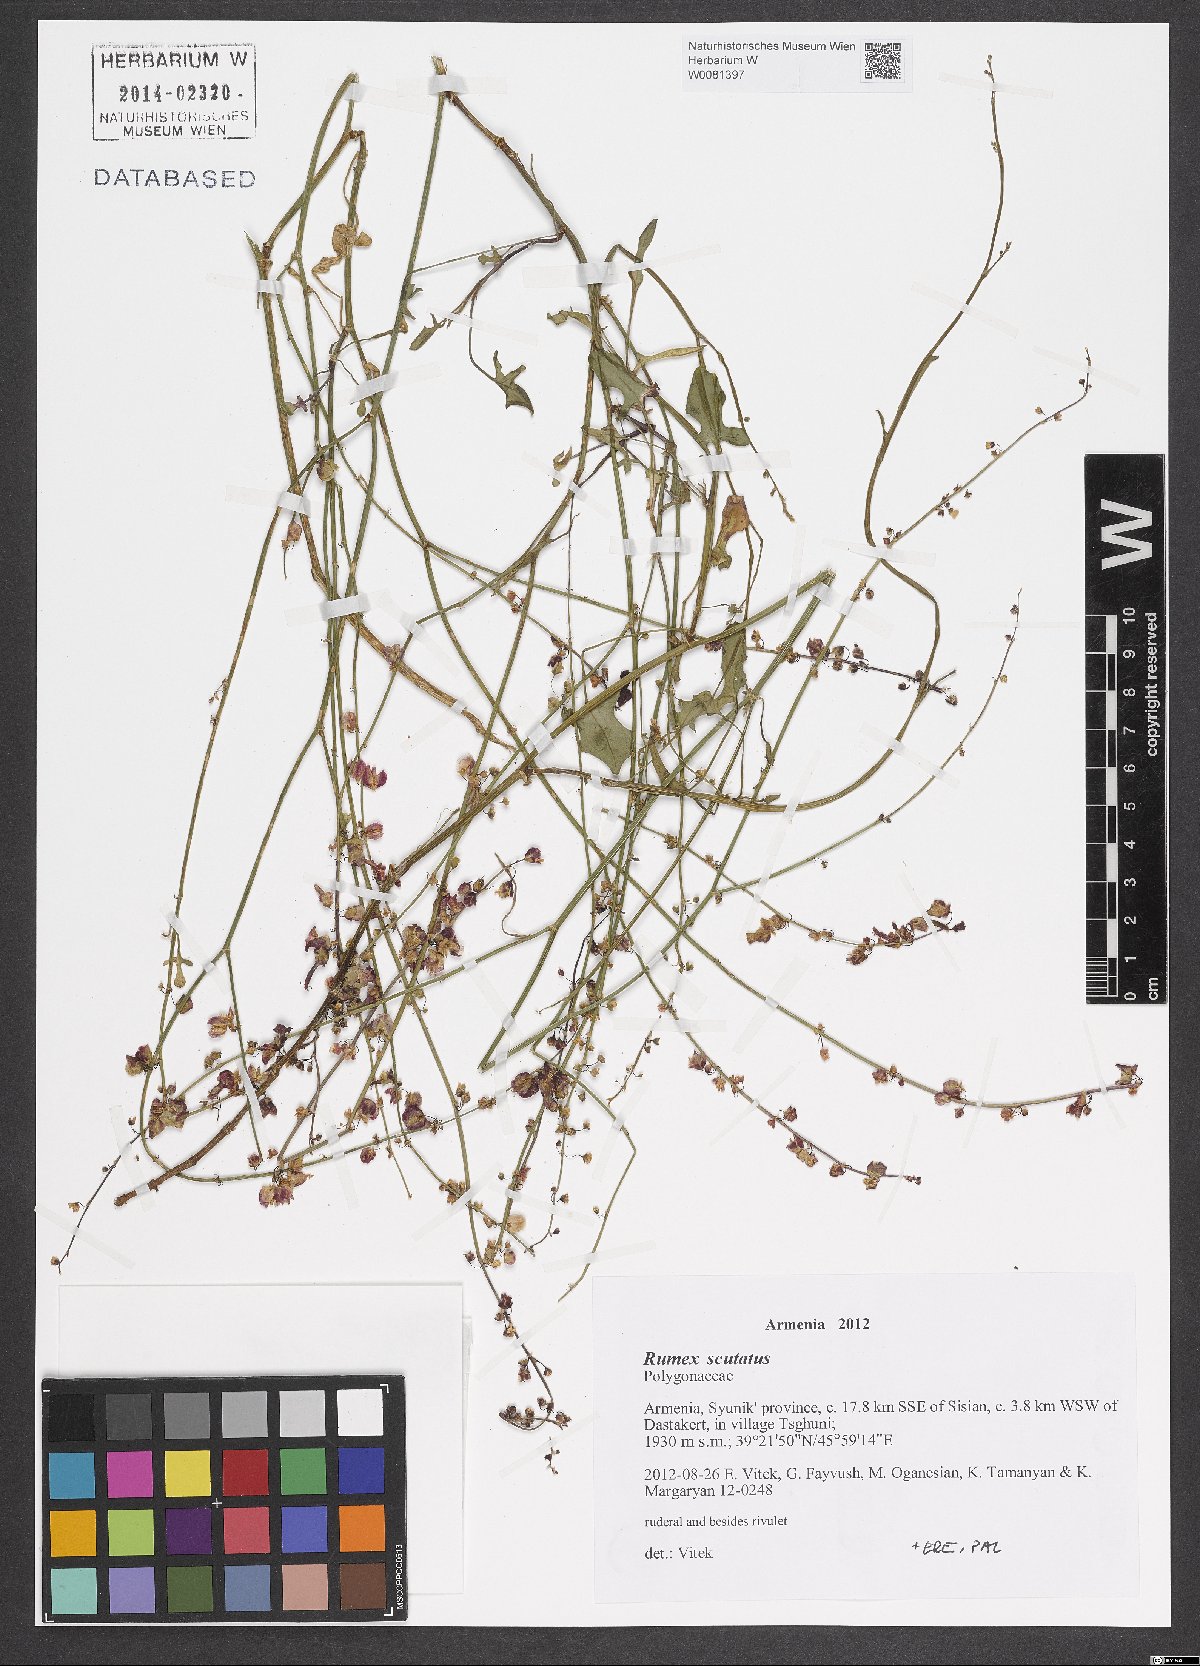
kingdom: Plantae
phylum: Tracheophyta
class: Magnoliopsida
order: Caryophyllales
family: Polygonaceae
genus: Rumex
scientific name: Rumex scutatus
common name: French sorrel
